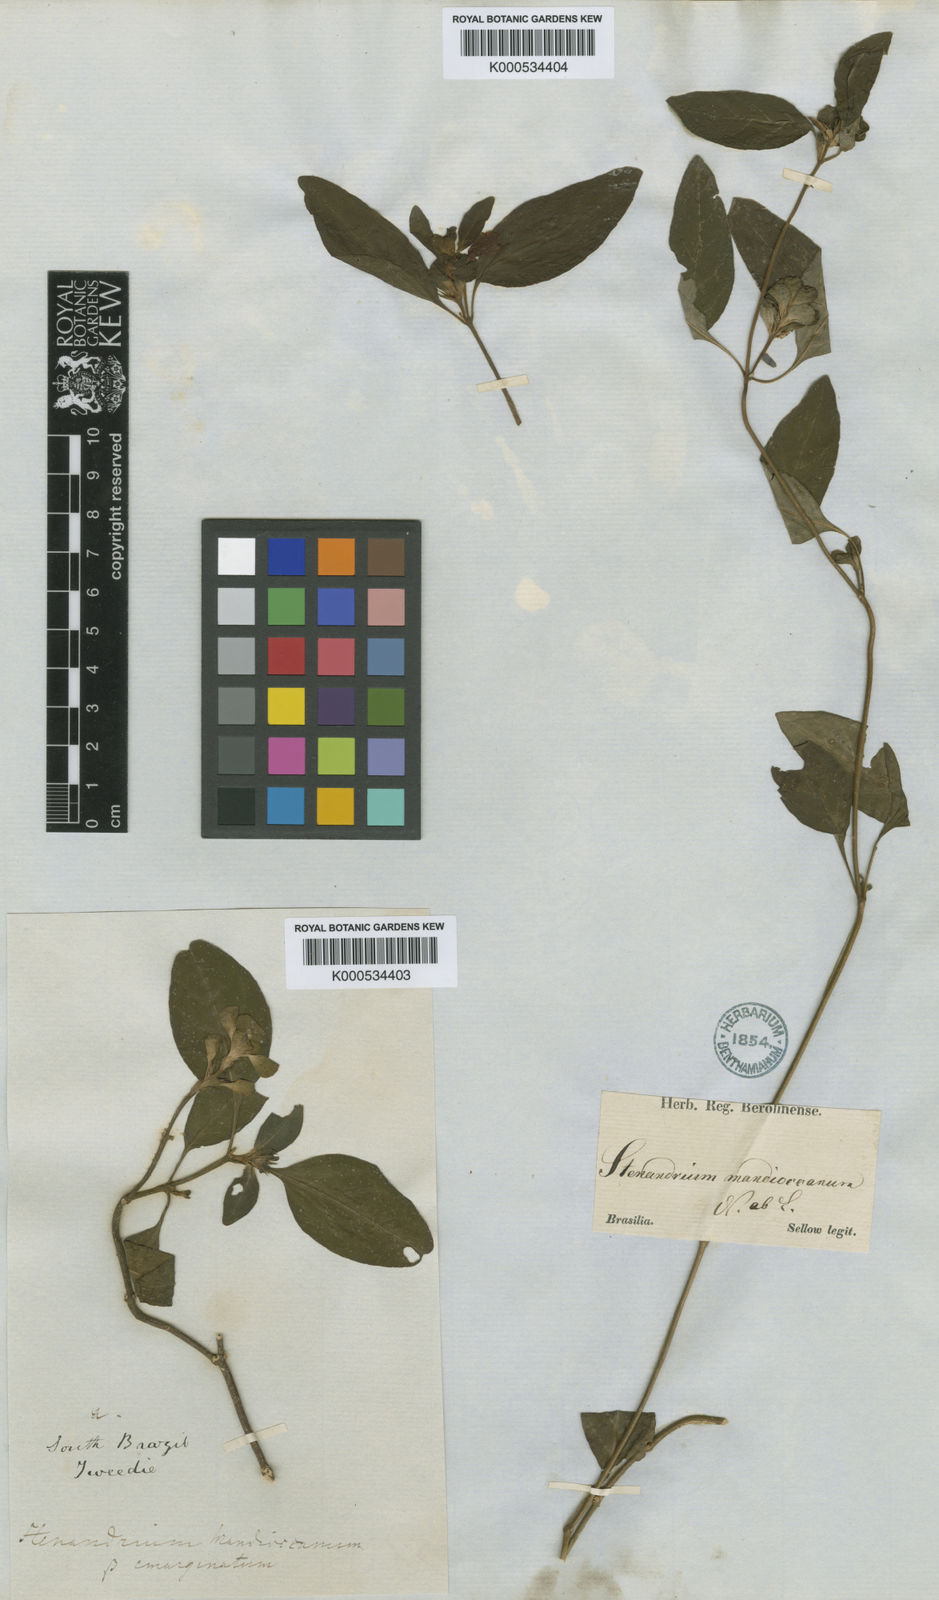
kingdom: Plantae
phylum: Tracheophyta
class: Magnoliopsida
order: Lamiales
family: Acanthaceae
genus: Stenandrium
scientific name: Stenandrium mandioccanum
